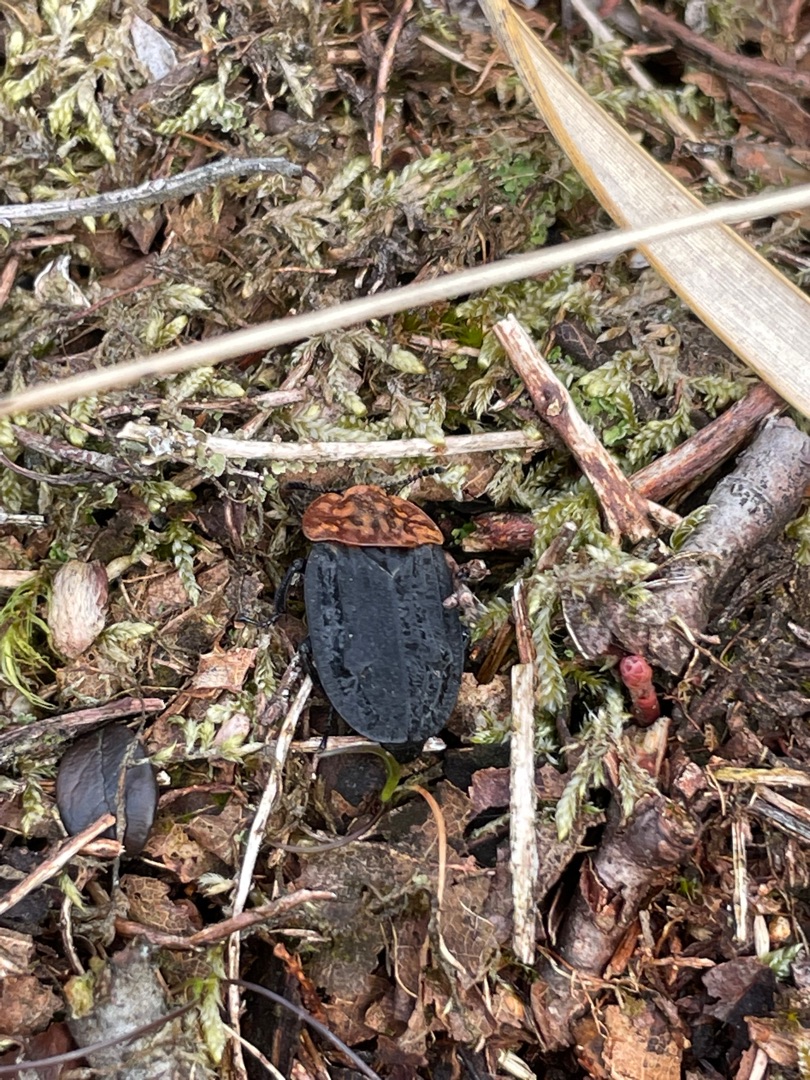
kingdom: Animalia
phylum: Arthropoda
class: Insecta
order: Coleoptera
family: Staphylinidae
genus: Oiceoptoma
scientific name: Oiceoptoma thoracicum
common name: Rødbrystet ådselbille
